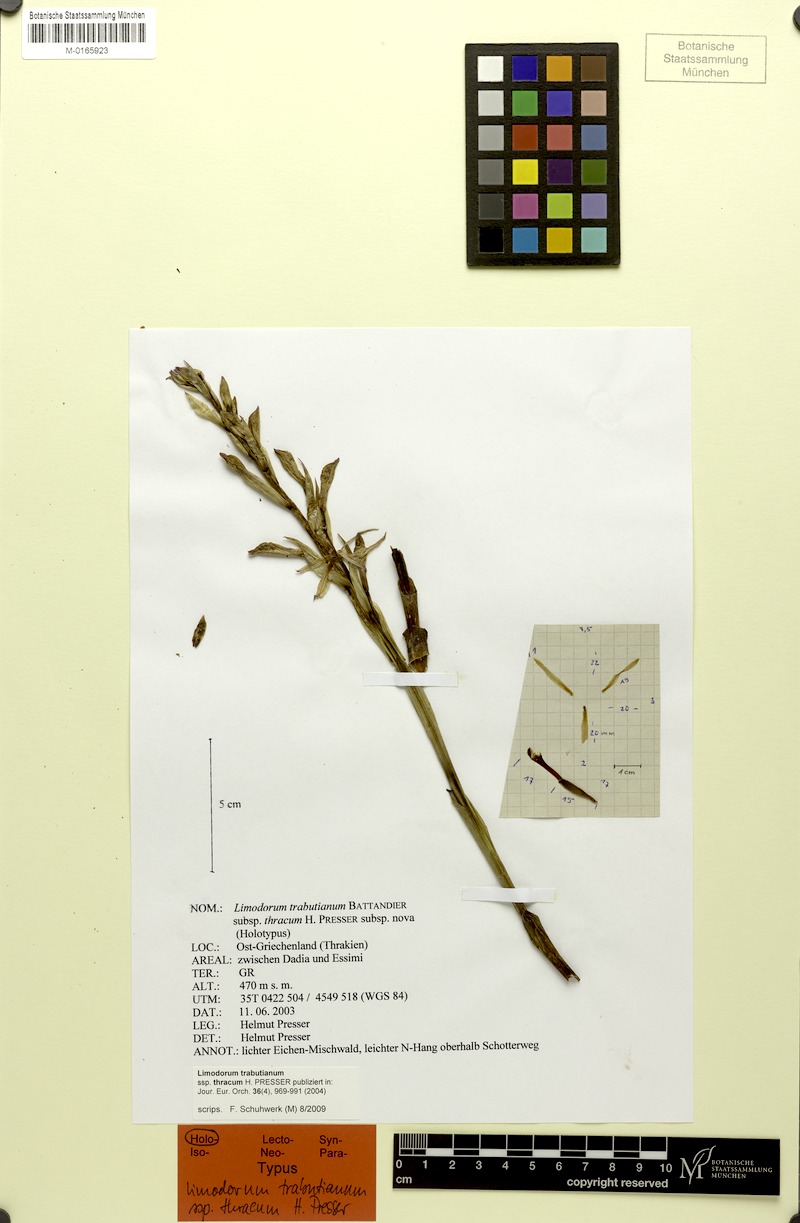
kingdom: Plantae
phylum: Tracheophyta
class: Liliopsida
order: Asparagales
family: Orchidaceae
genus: Limodorum
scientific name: Limodorum abortivum
